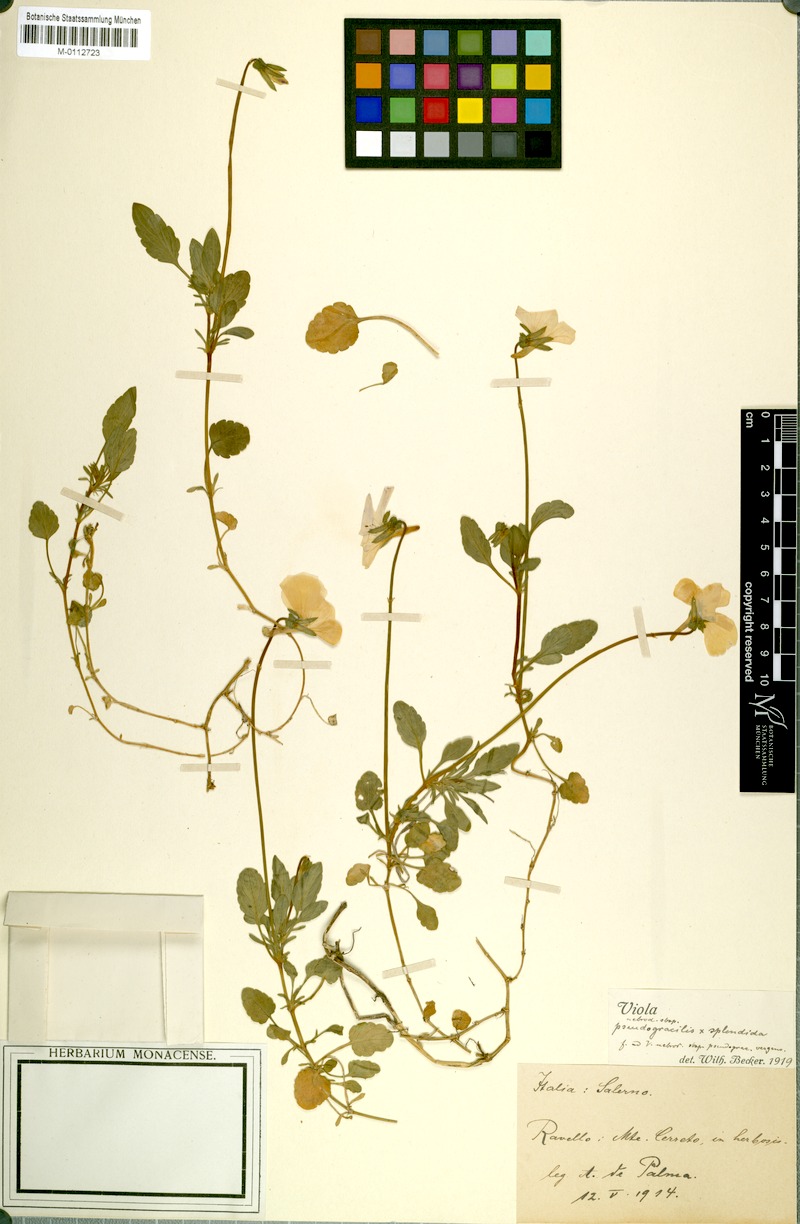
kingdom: Plantae
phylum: Tracheophyta
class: Magnoliopsida
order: Malpighiales
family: Violaceae
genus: Viola
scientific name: Viola aethnensis
